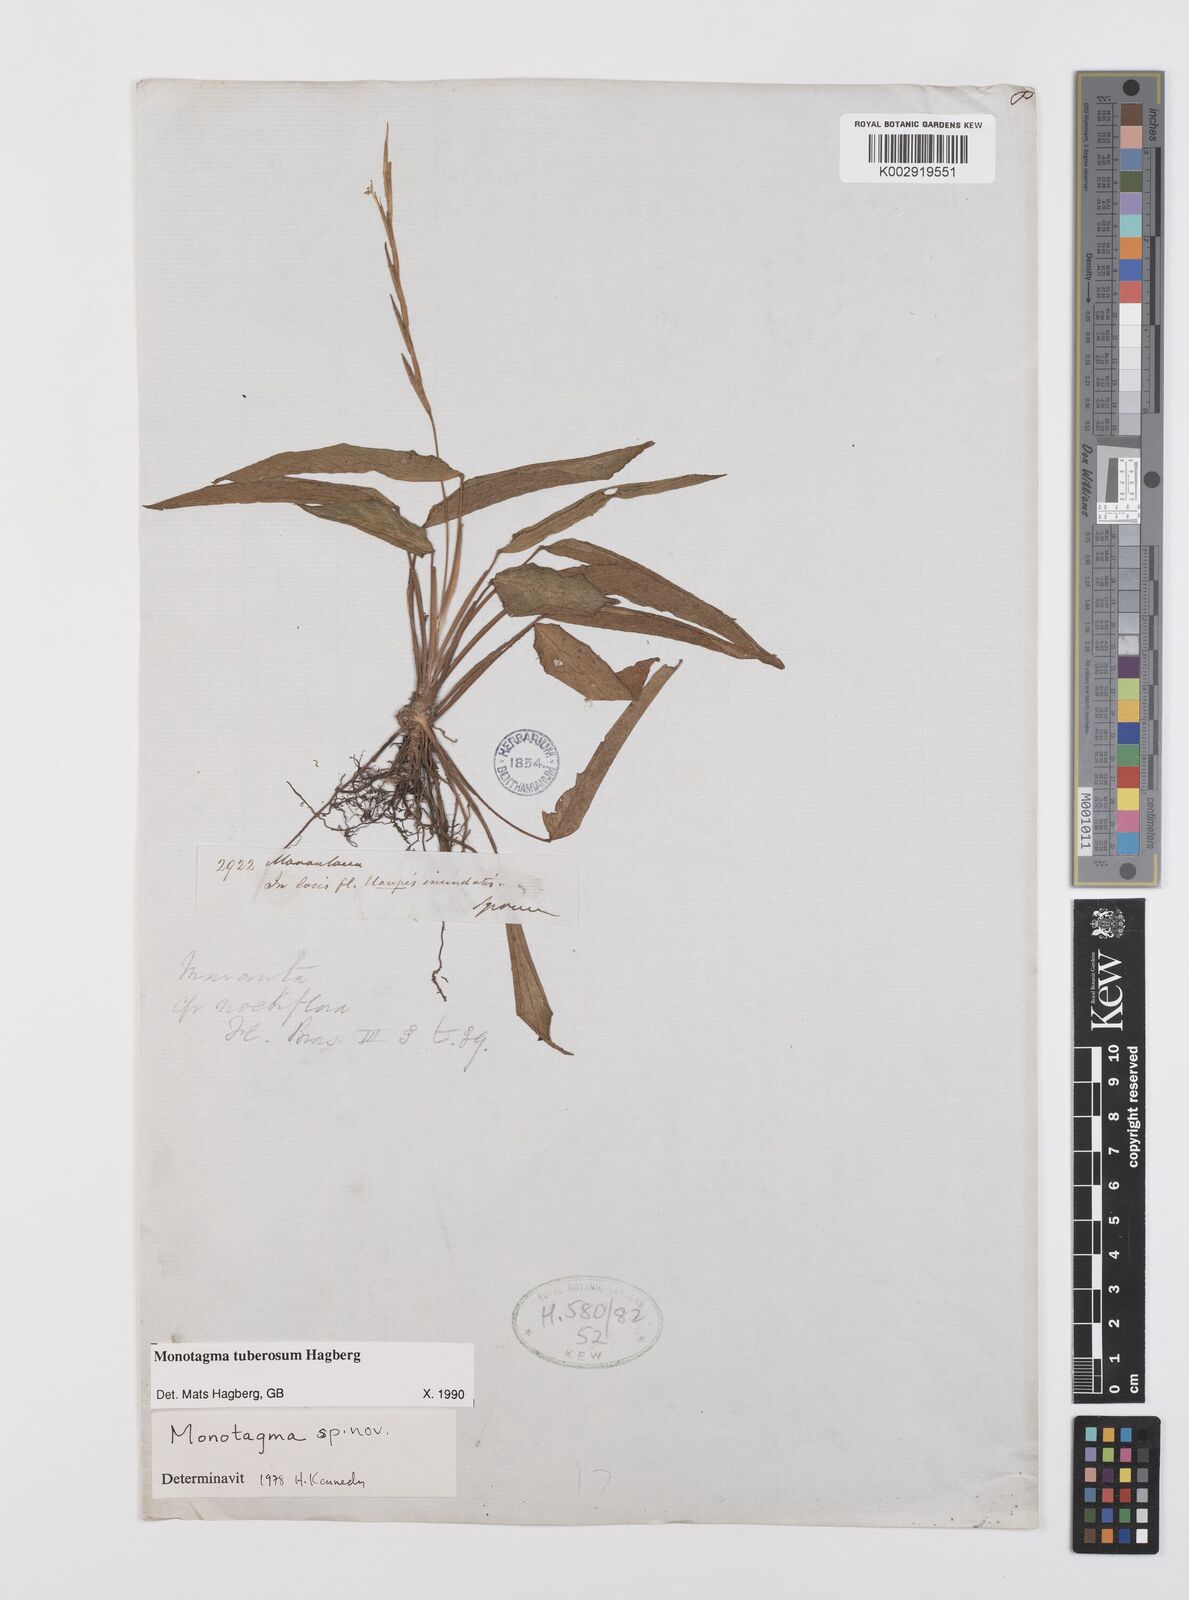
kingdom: Plantae
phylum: Tracheophyta
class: Liliopsida
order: Zingiberales
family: Marantaceae
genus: Monotagma
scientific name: Monotagma tuberosum
